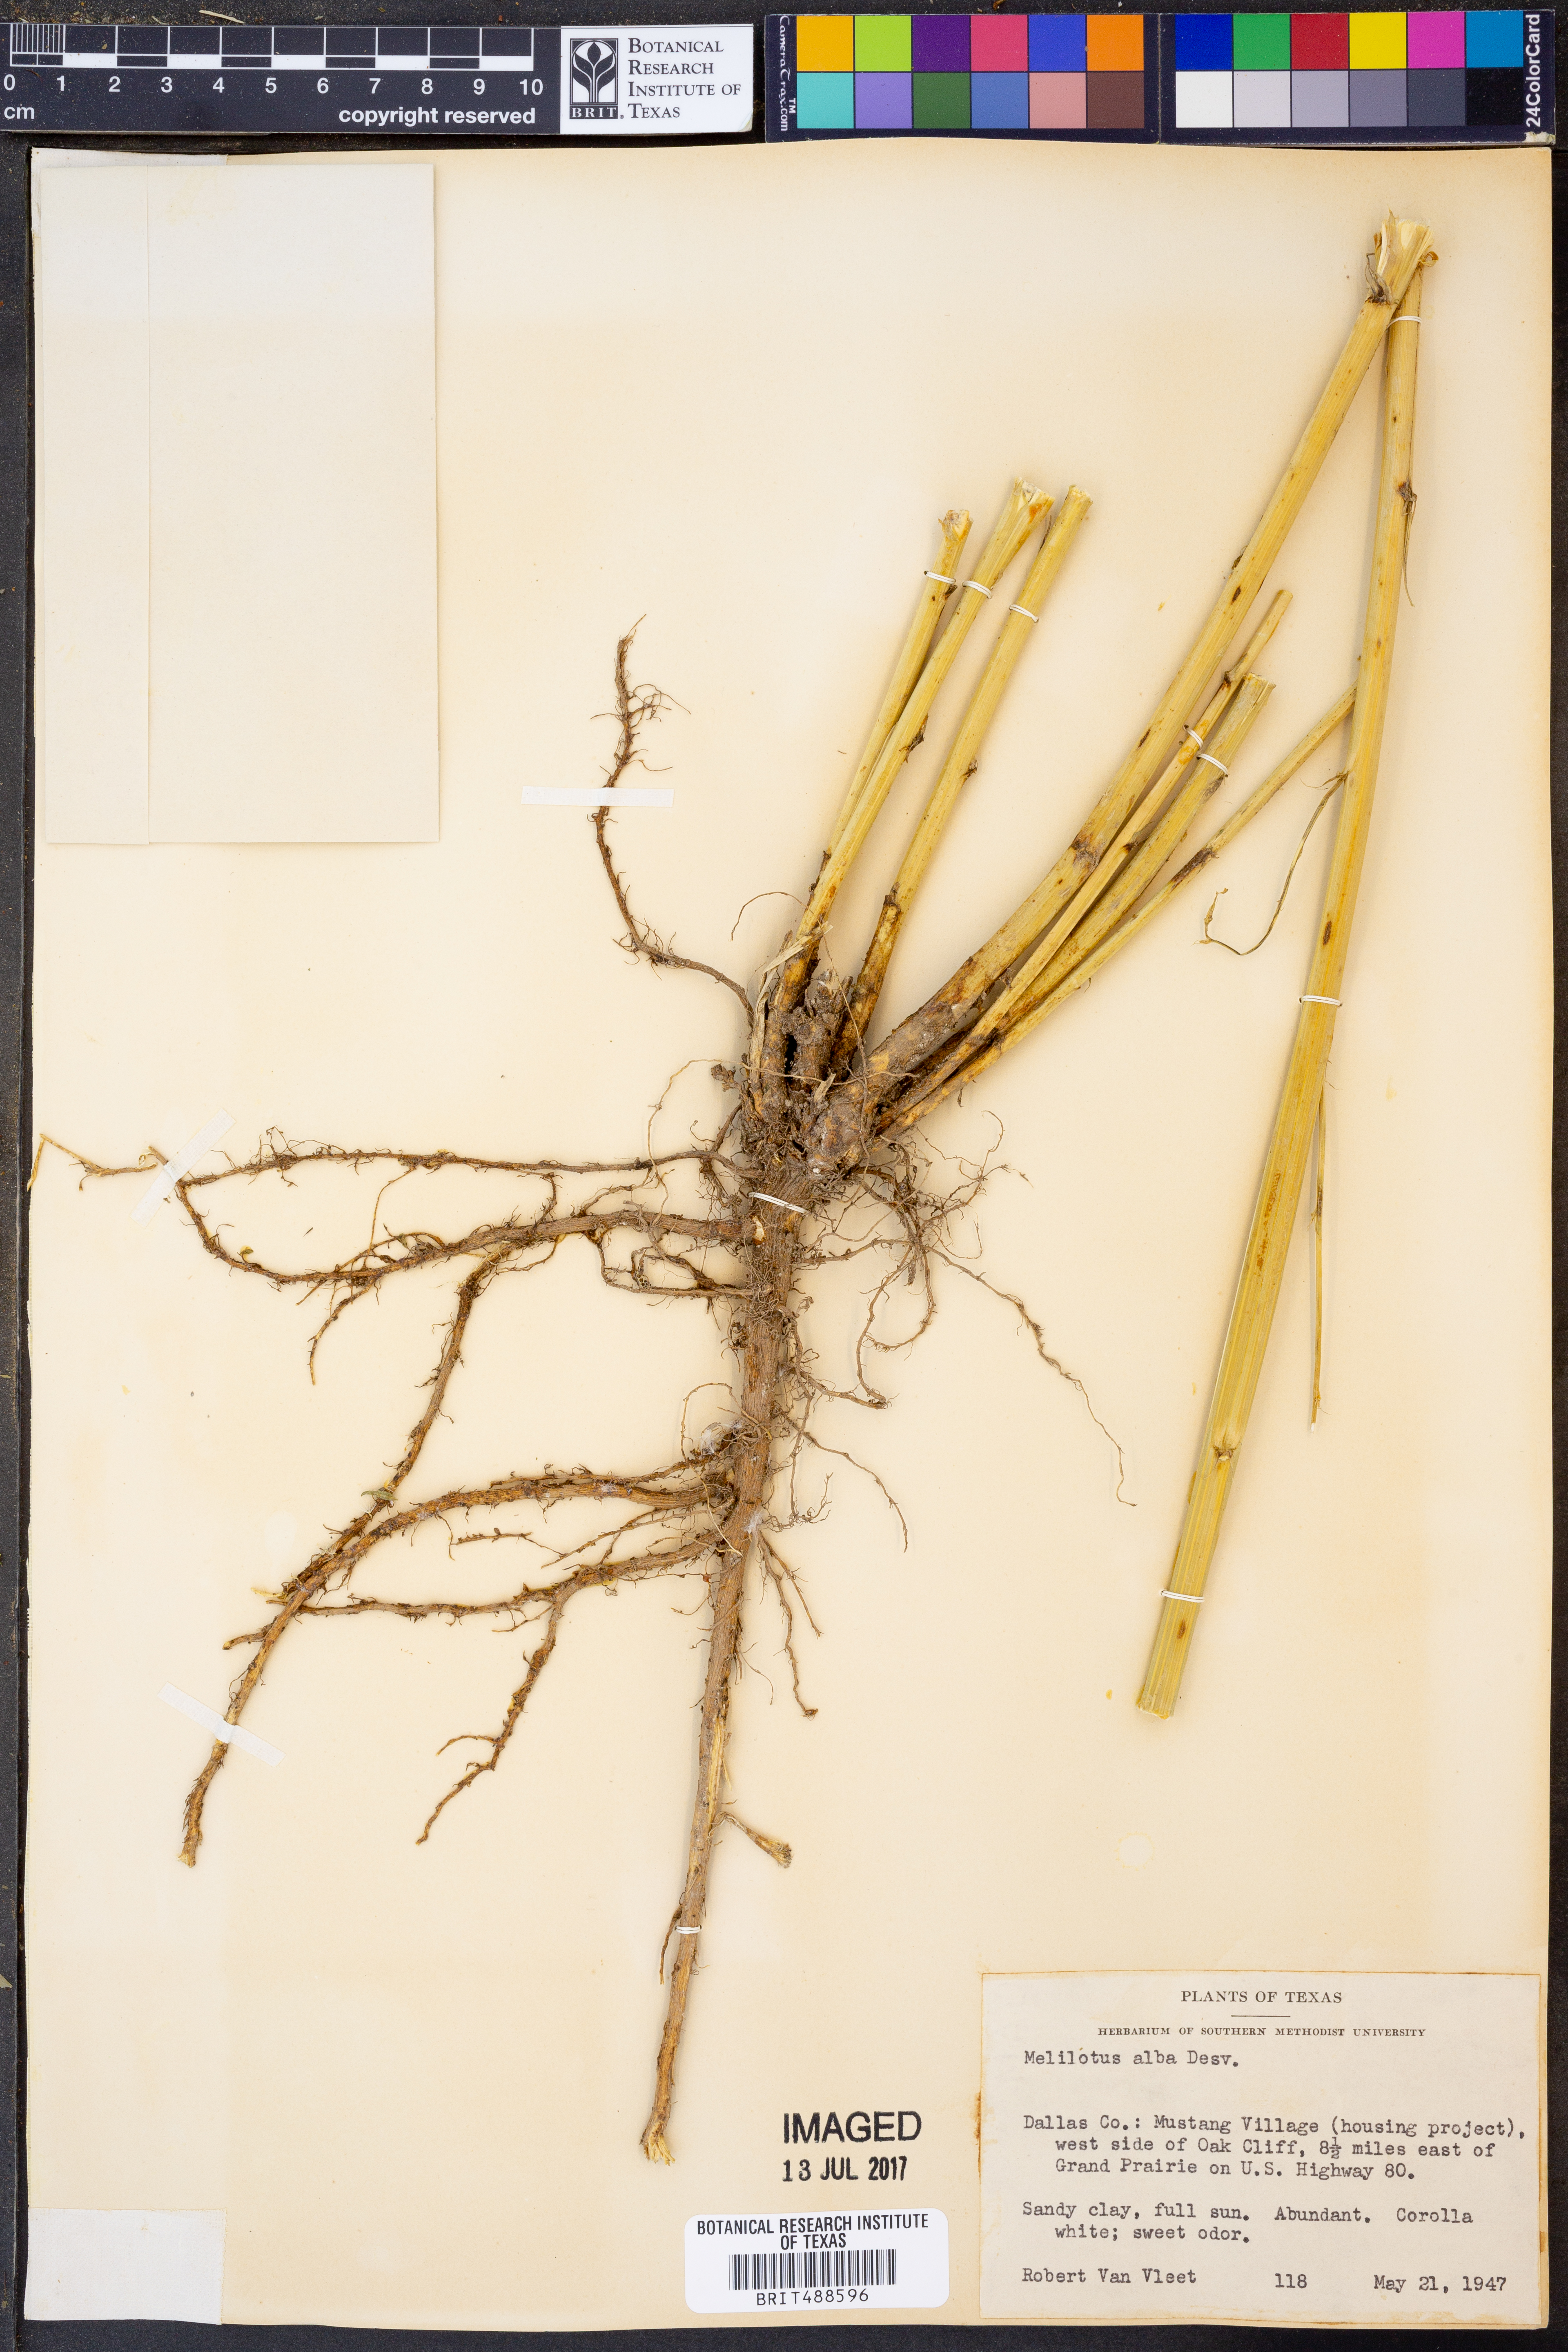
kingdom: Plantae
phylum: Tracheophyta
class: Magnoliopsida
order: Fabales
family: Fabaceae
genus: Melilotus
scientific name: Melilotus albus
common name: White melilot
